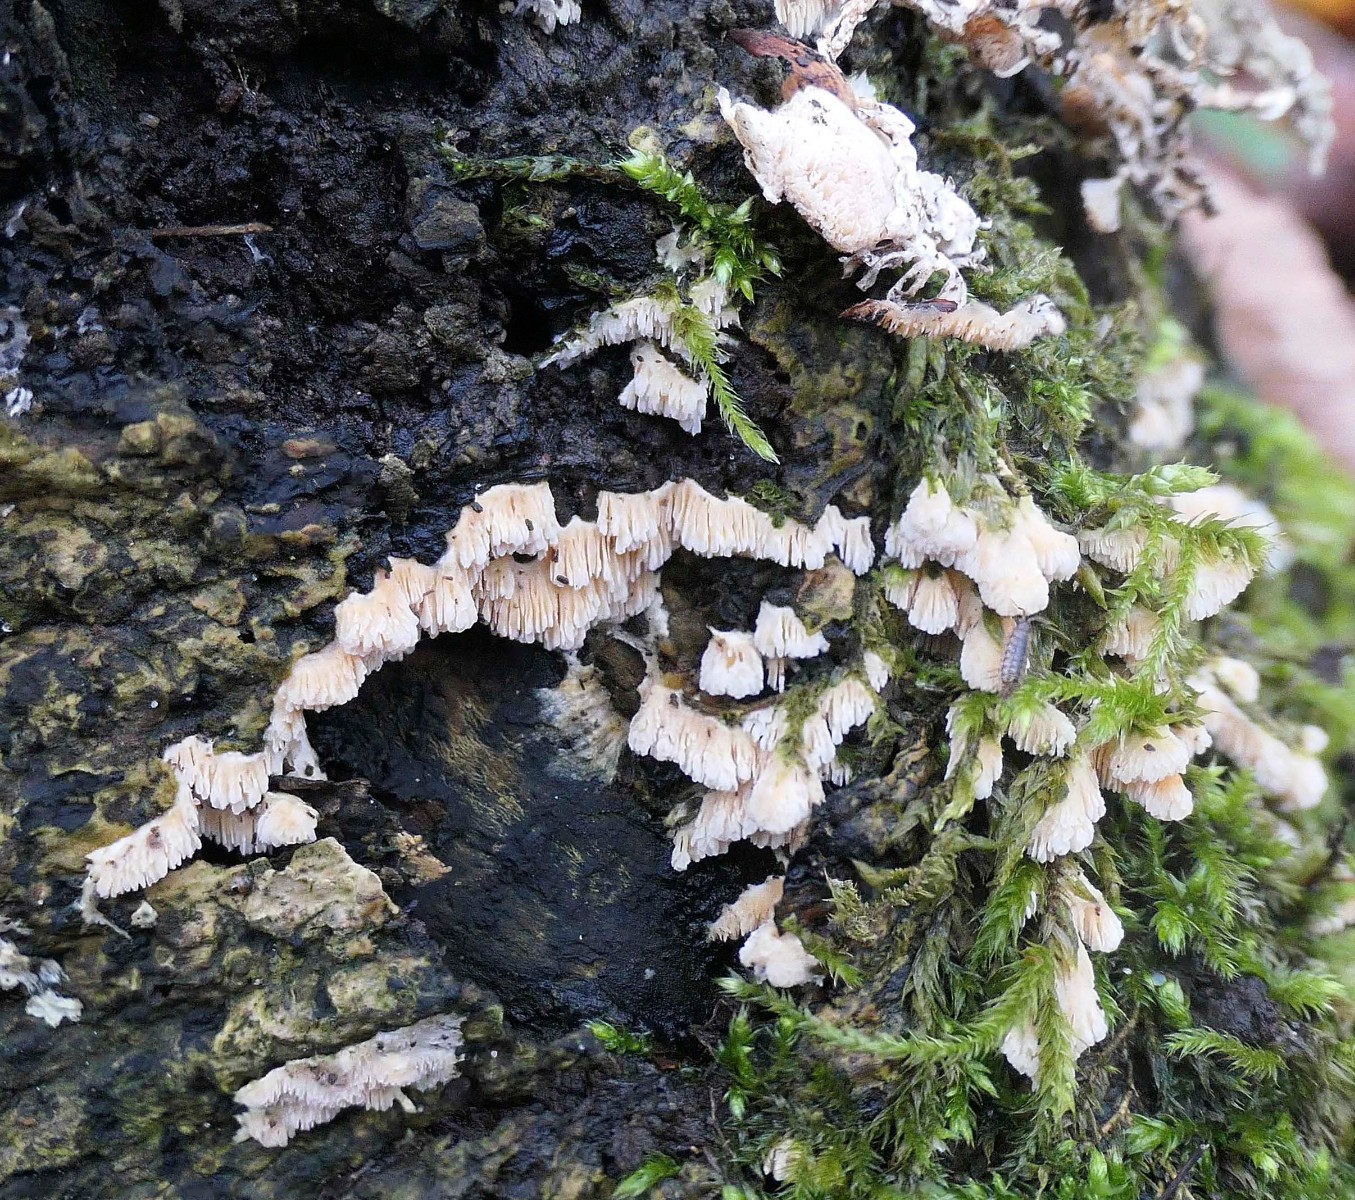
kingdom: Fungi
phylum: Basidiomycota
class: Agaricomycetes
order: Hymenochaetales
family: Schizoporaceae
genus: Schizopora
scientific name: Schizopora paradoxa
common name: hvid tandsvamp
